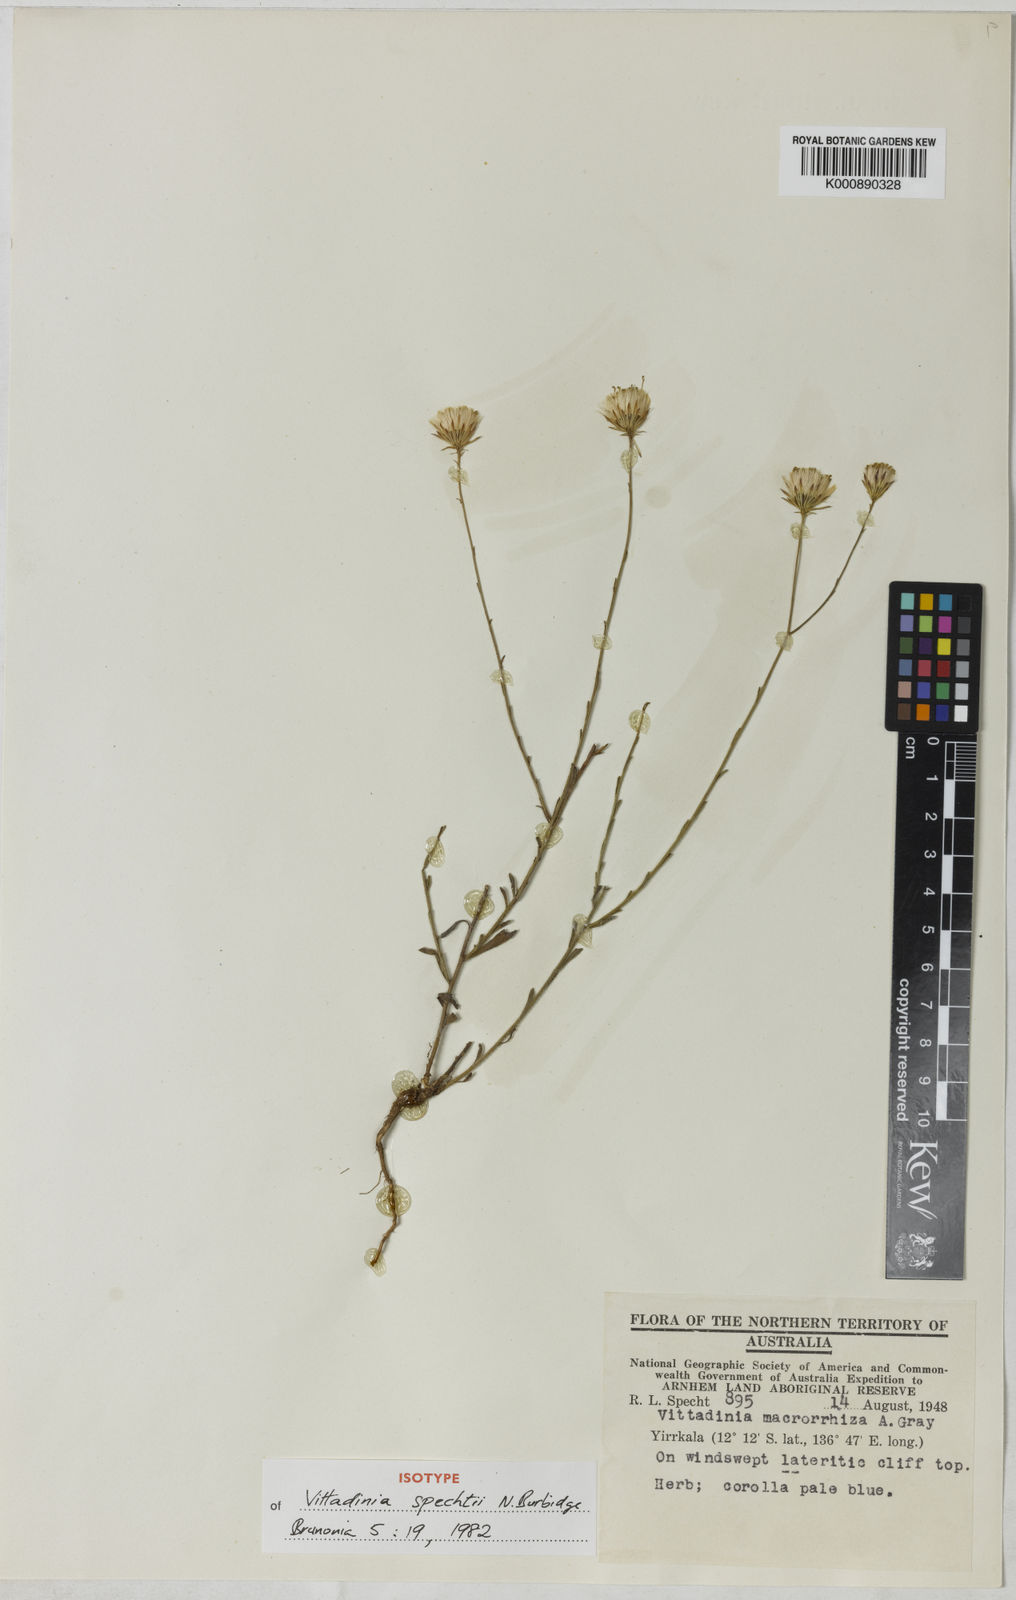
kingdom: Plantae
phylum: Tracheophyta
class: Magnoliopsida
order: Asterales
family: Asteraceae
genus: Peripleura
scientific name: Peripleura spechtii
